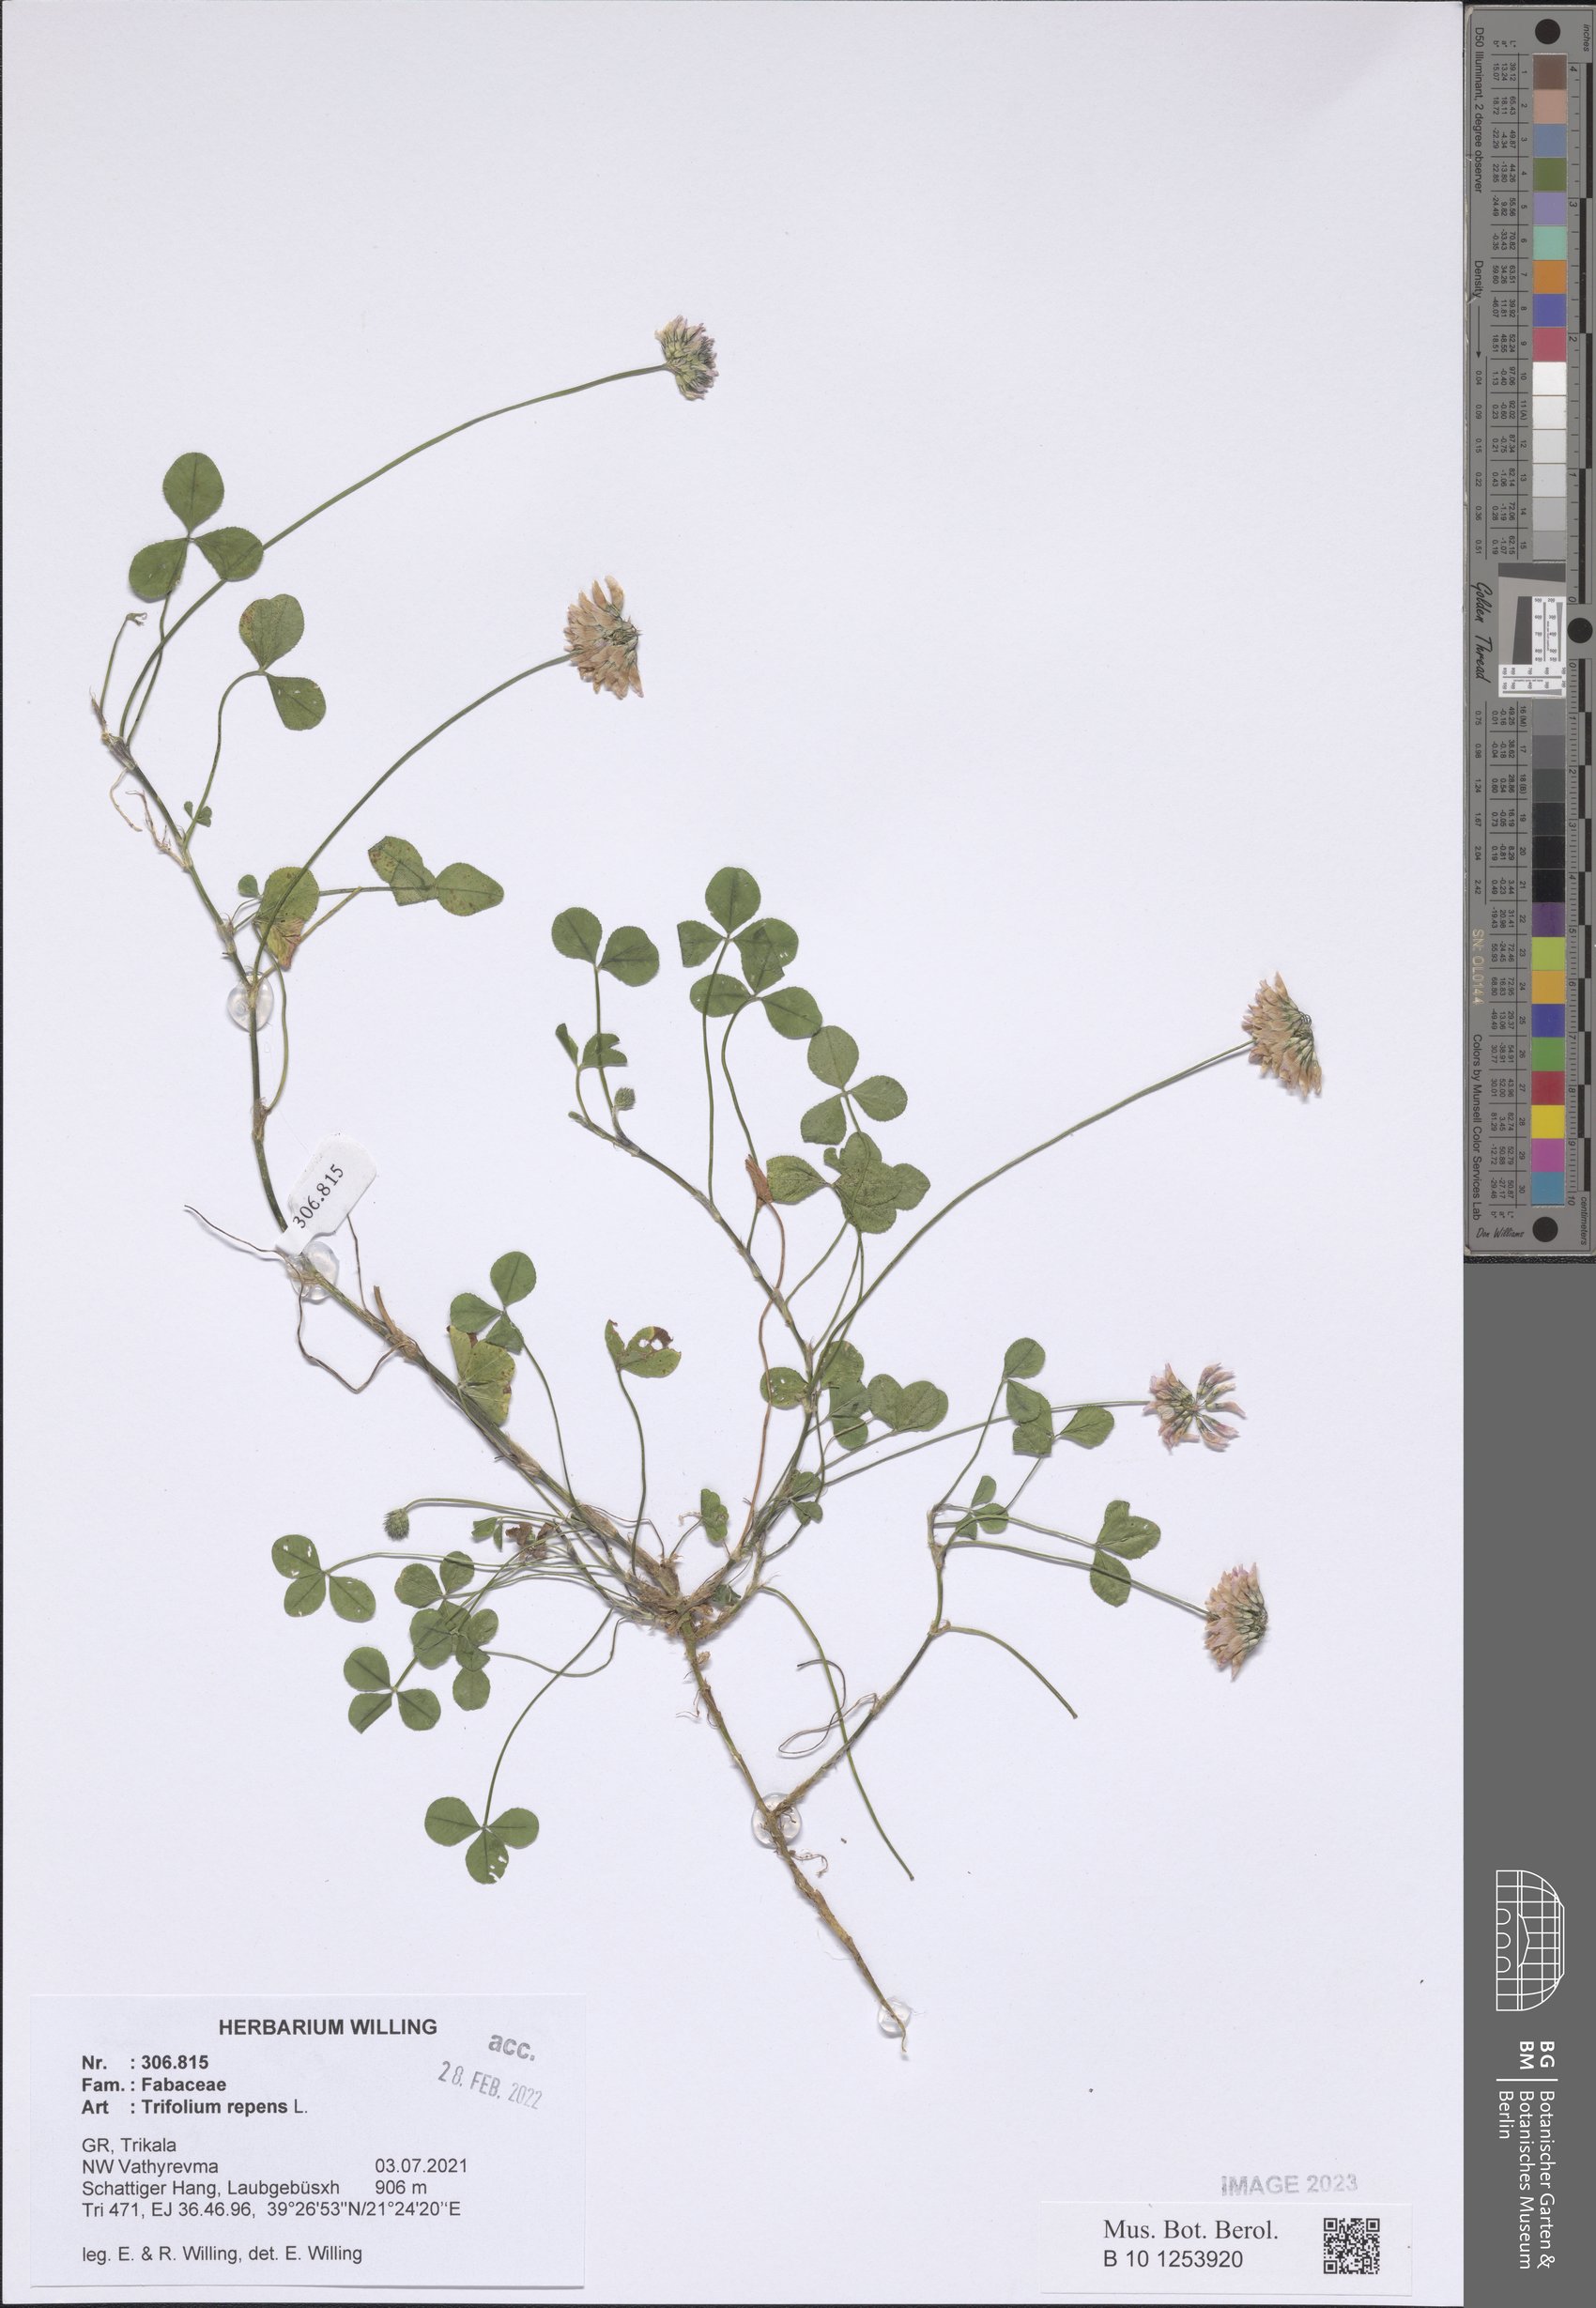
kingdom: Plantae
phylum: Tracheophyta
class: Magnoliopsida
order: Fabales
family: Fabaceae
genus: Trifolium
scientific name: Trifolium repens
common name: White clover
